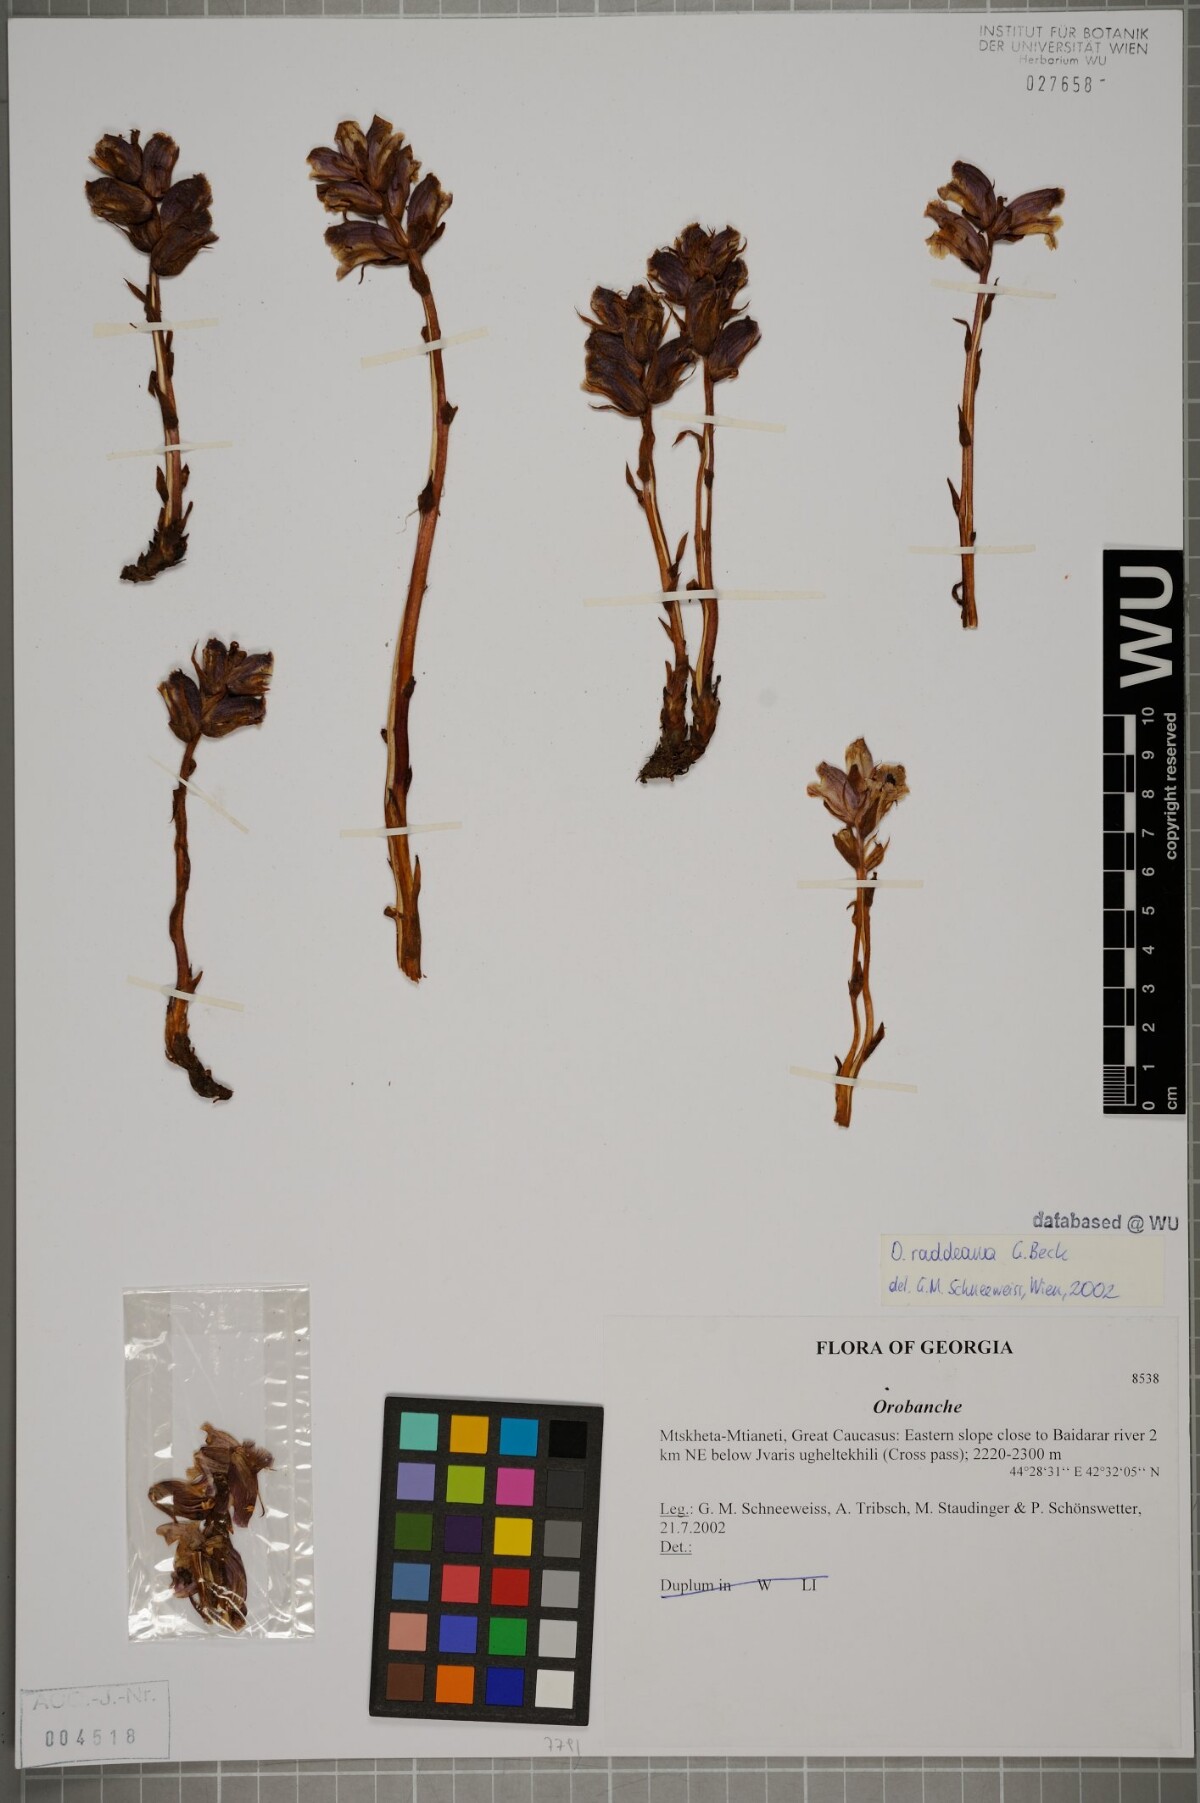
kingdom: Plantae
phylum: Tracheophyta
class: Magnoliopsida
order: Lamiales
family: Orobanchaceae
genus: Orobanche
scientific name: Orobanche alba
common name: Thyme broomrape
